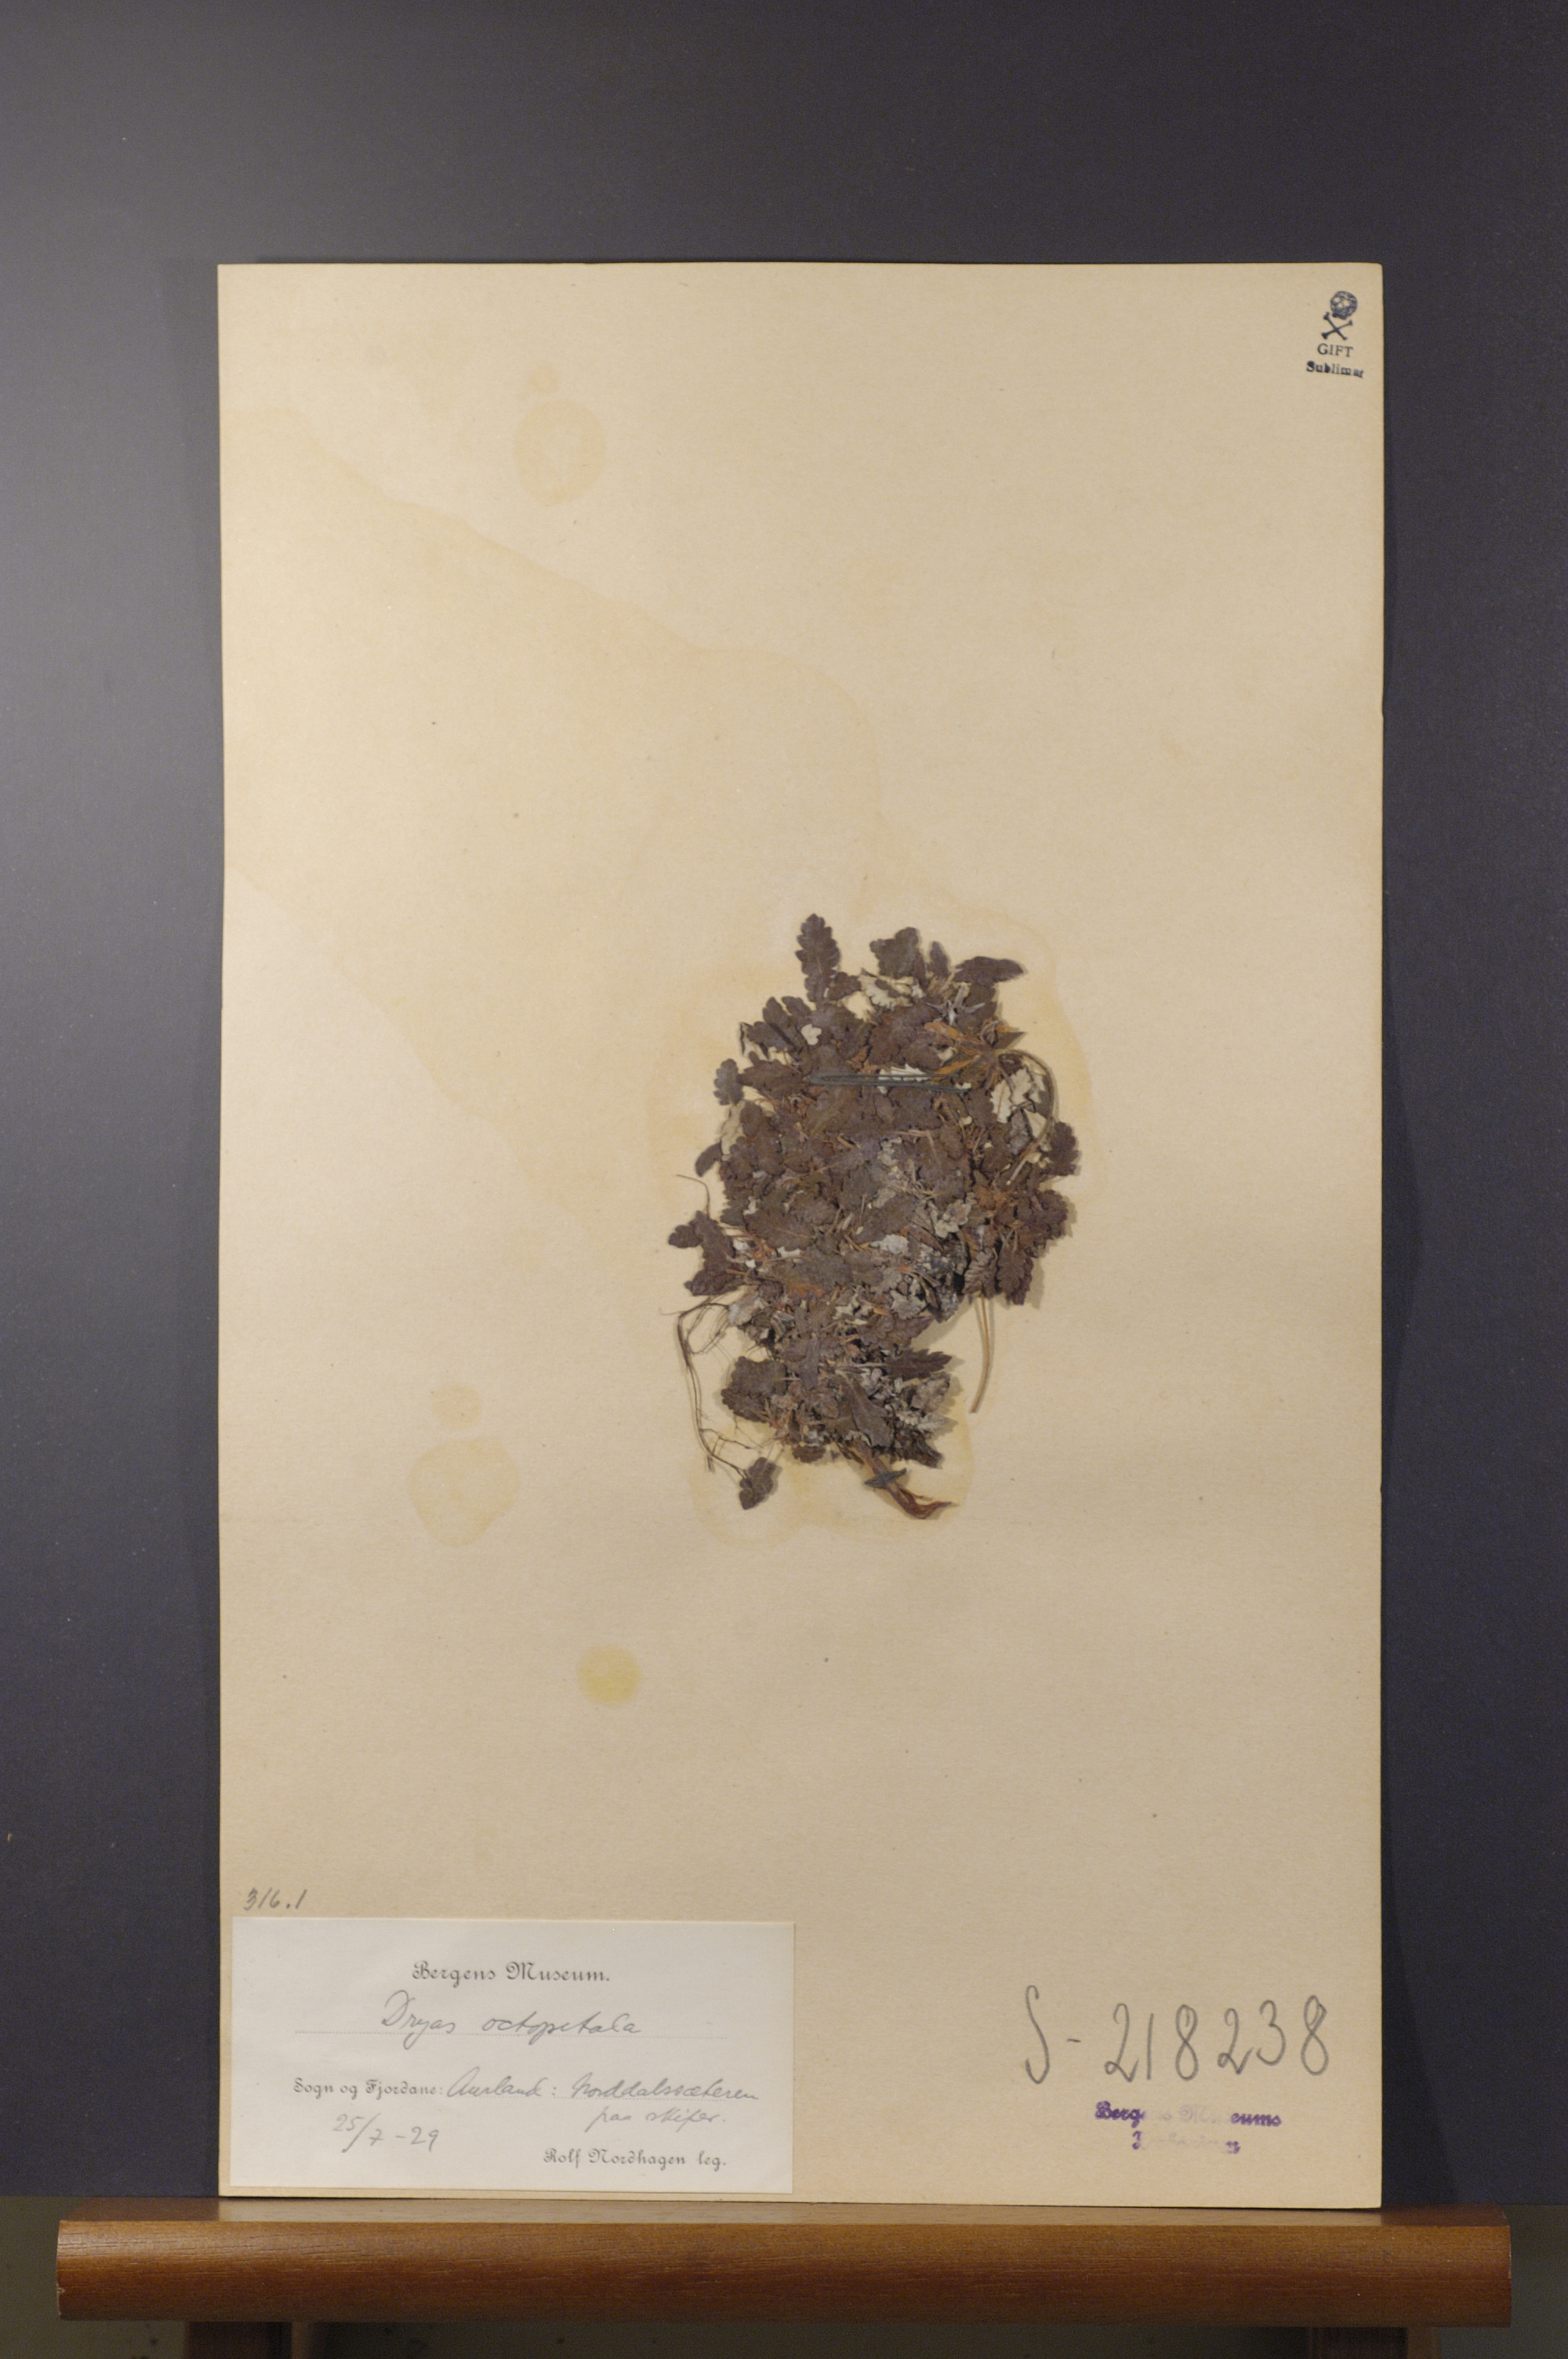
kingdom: Plantae
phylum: Tracheophyta
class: Magnoliopsida
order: Rosales
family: Rosaceae
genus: Dryas
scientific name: Dryas octopetala
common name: Eight-petal mountain-avens
